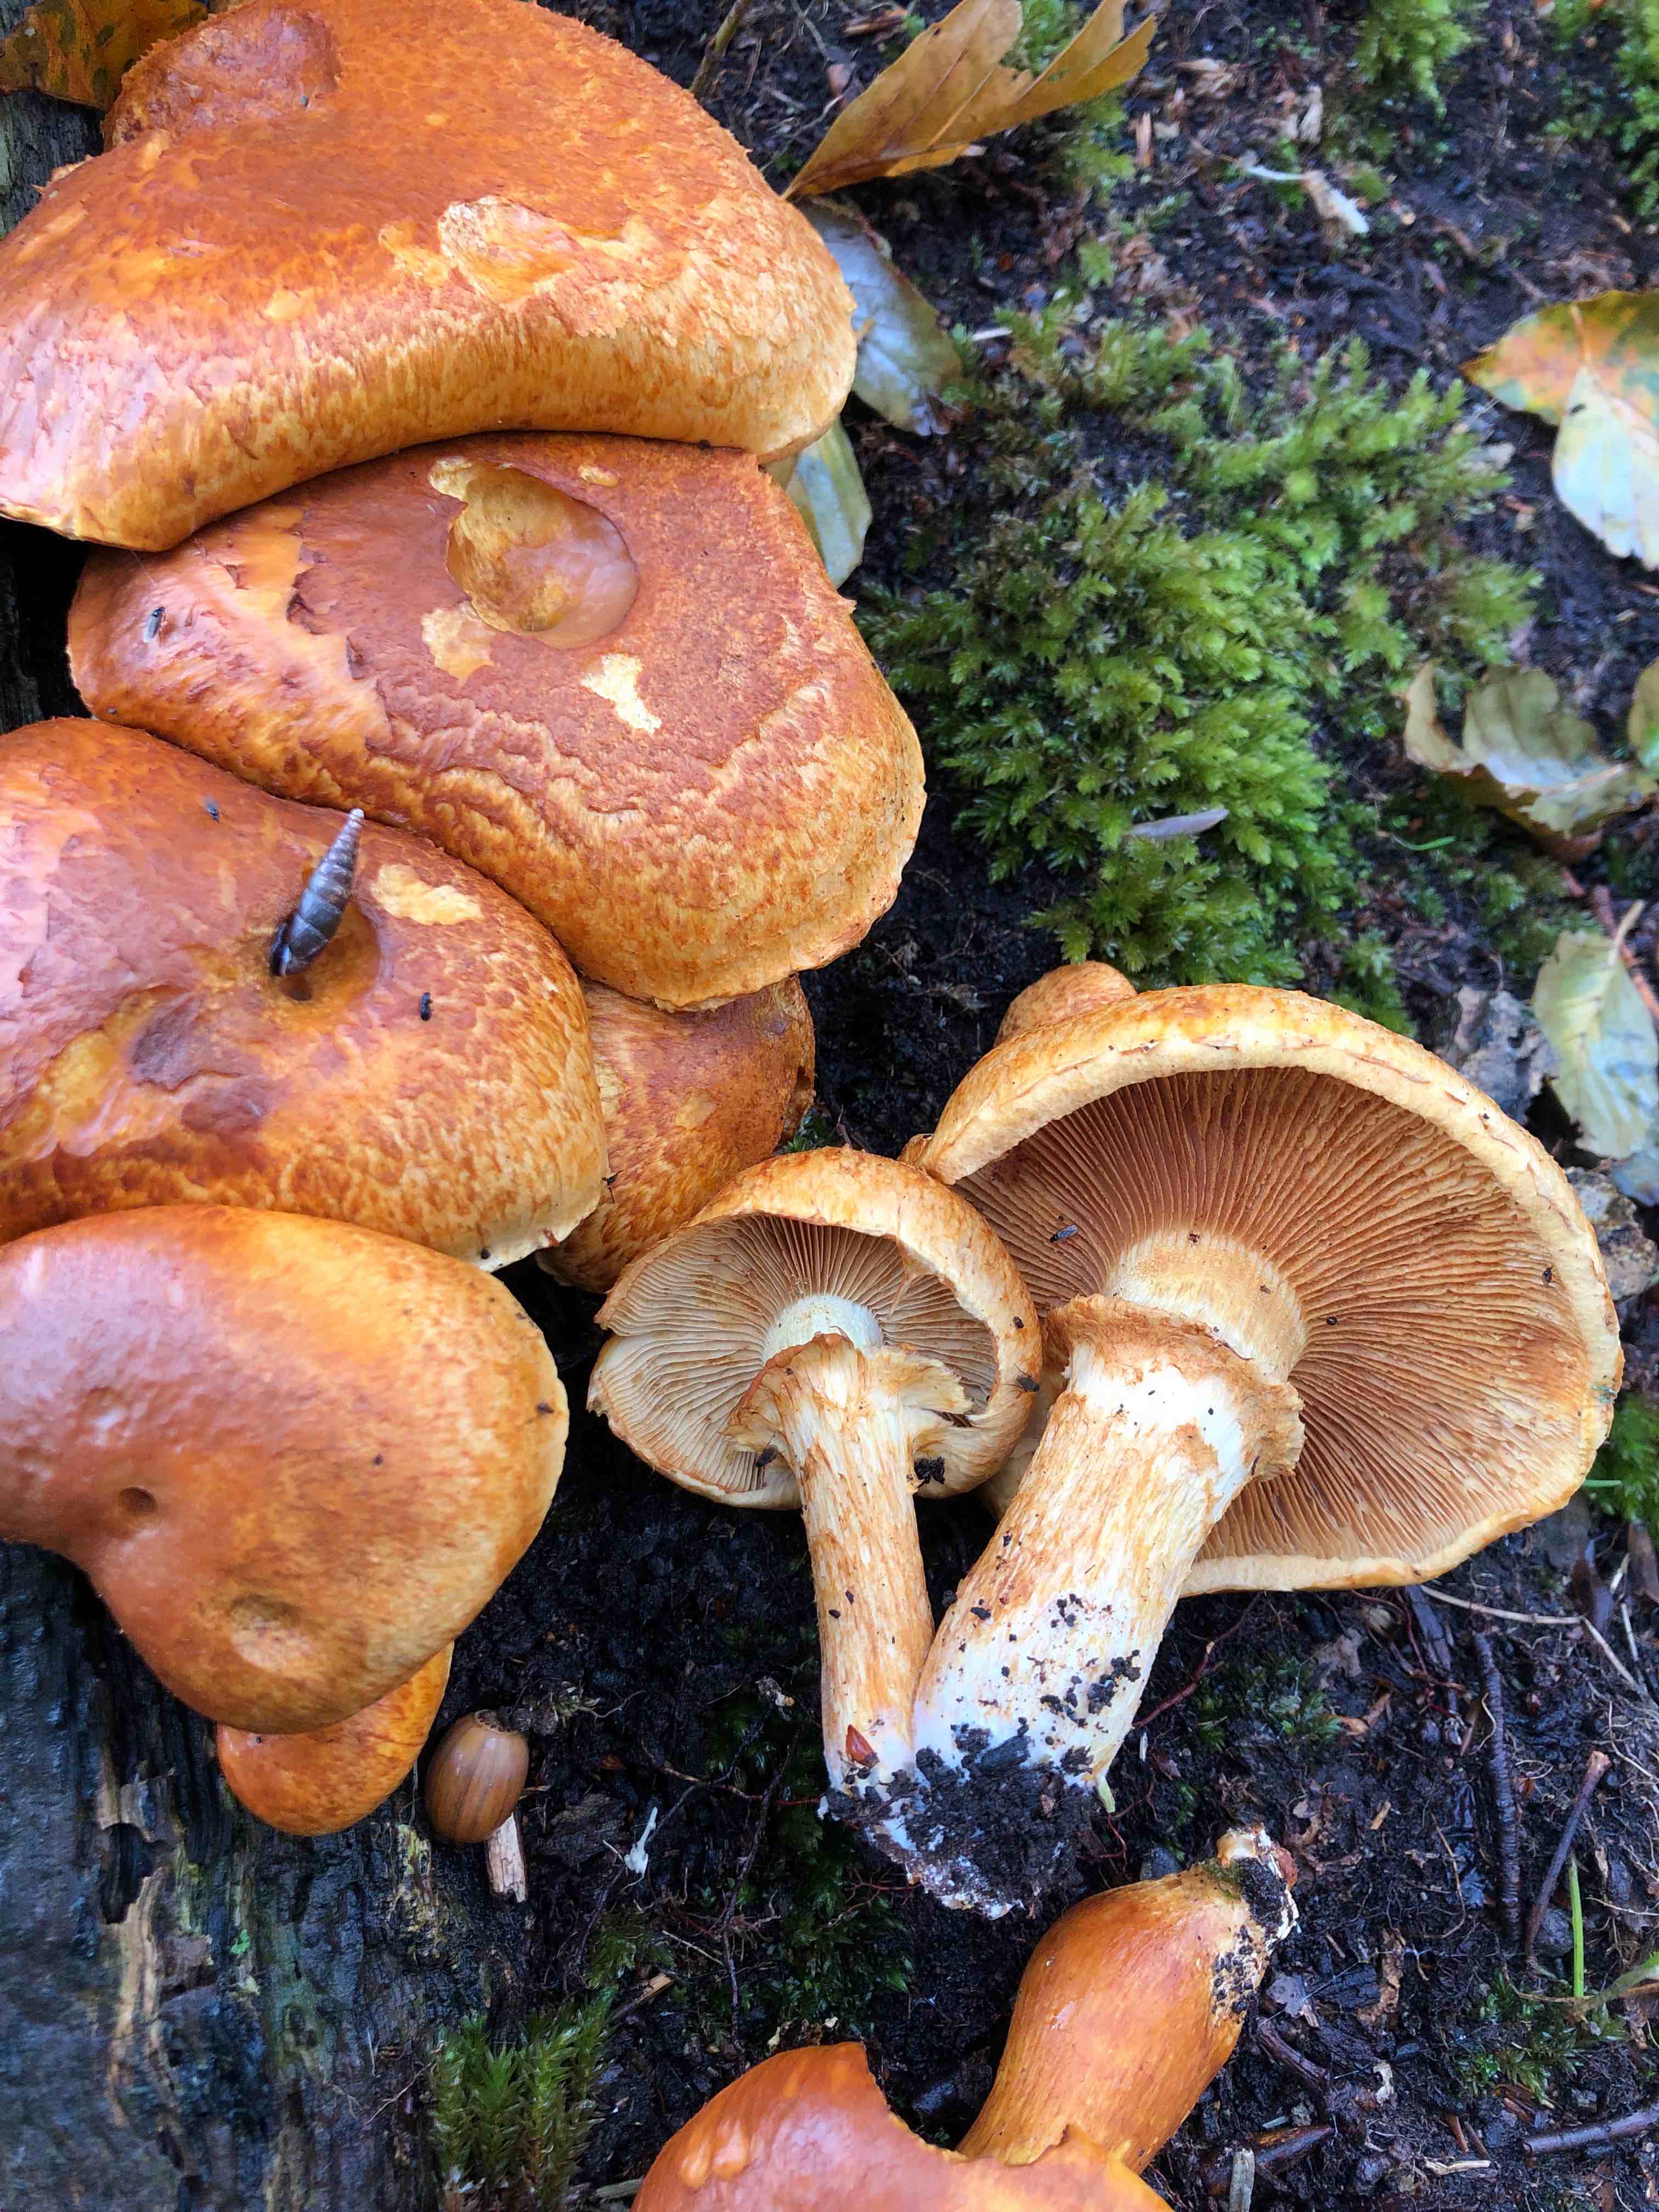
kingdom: Fungi
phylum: Basidiomycota
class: Agaricomycetes
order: Agaricales
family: Hymenogastraceae
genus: Gymnopilus
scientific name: Gymnopilus spectabilis
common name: fibret flammehat
